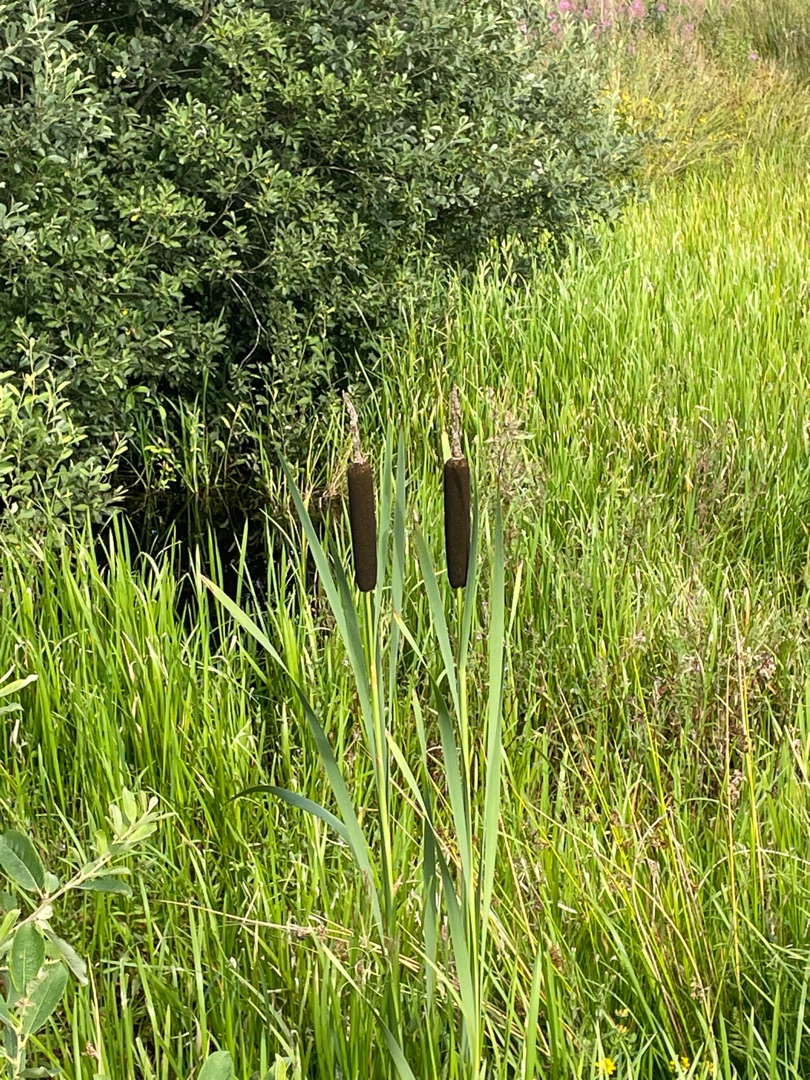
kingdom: Plantae
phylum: Tracheophyta
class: Liliopsida
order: Poales
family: Typhaceae
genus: Typha
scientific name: Typha latifolia
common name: Bredbladet dunhammer
